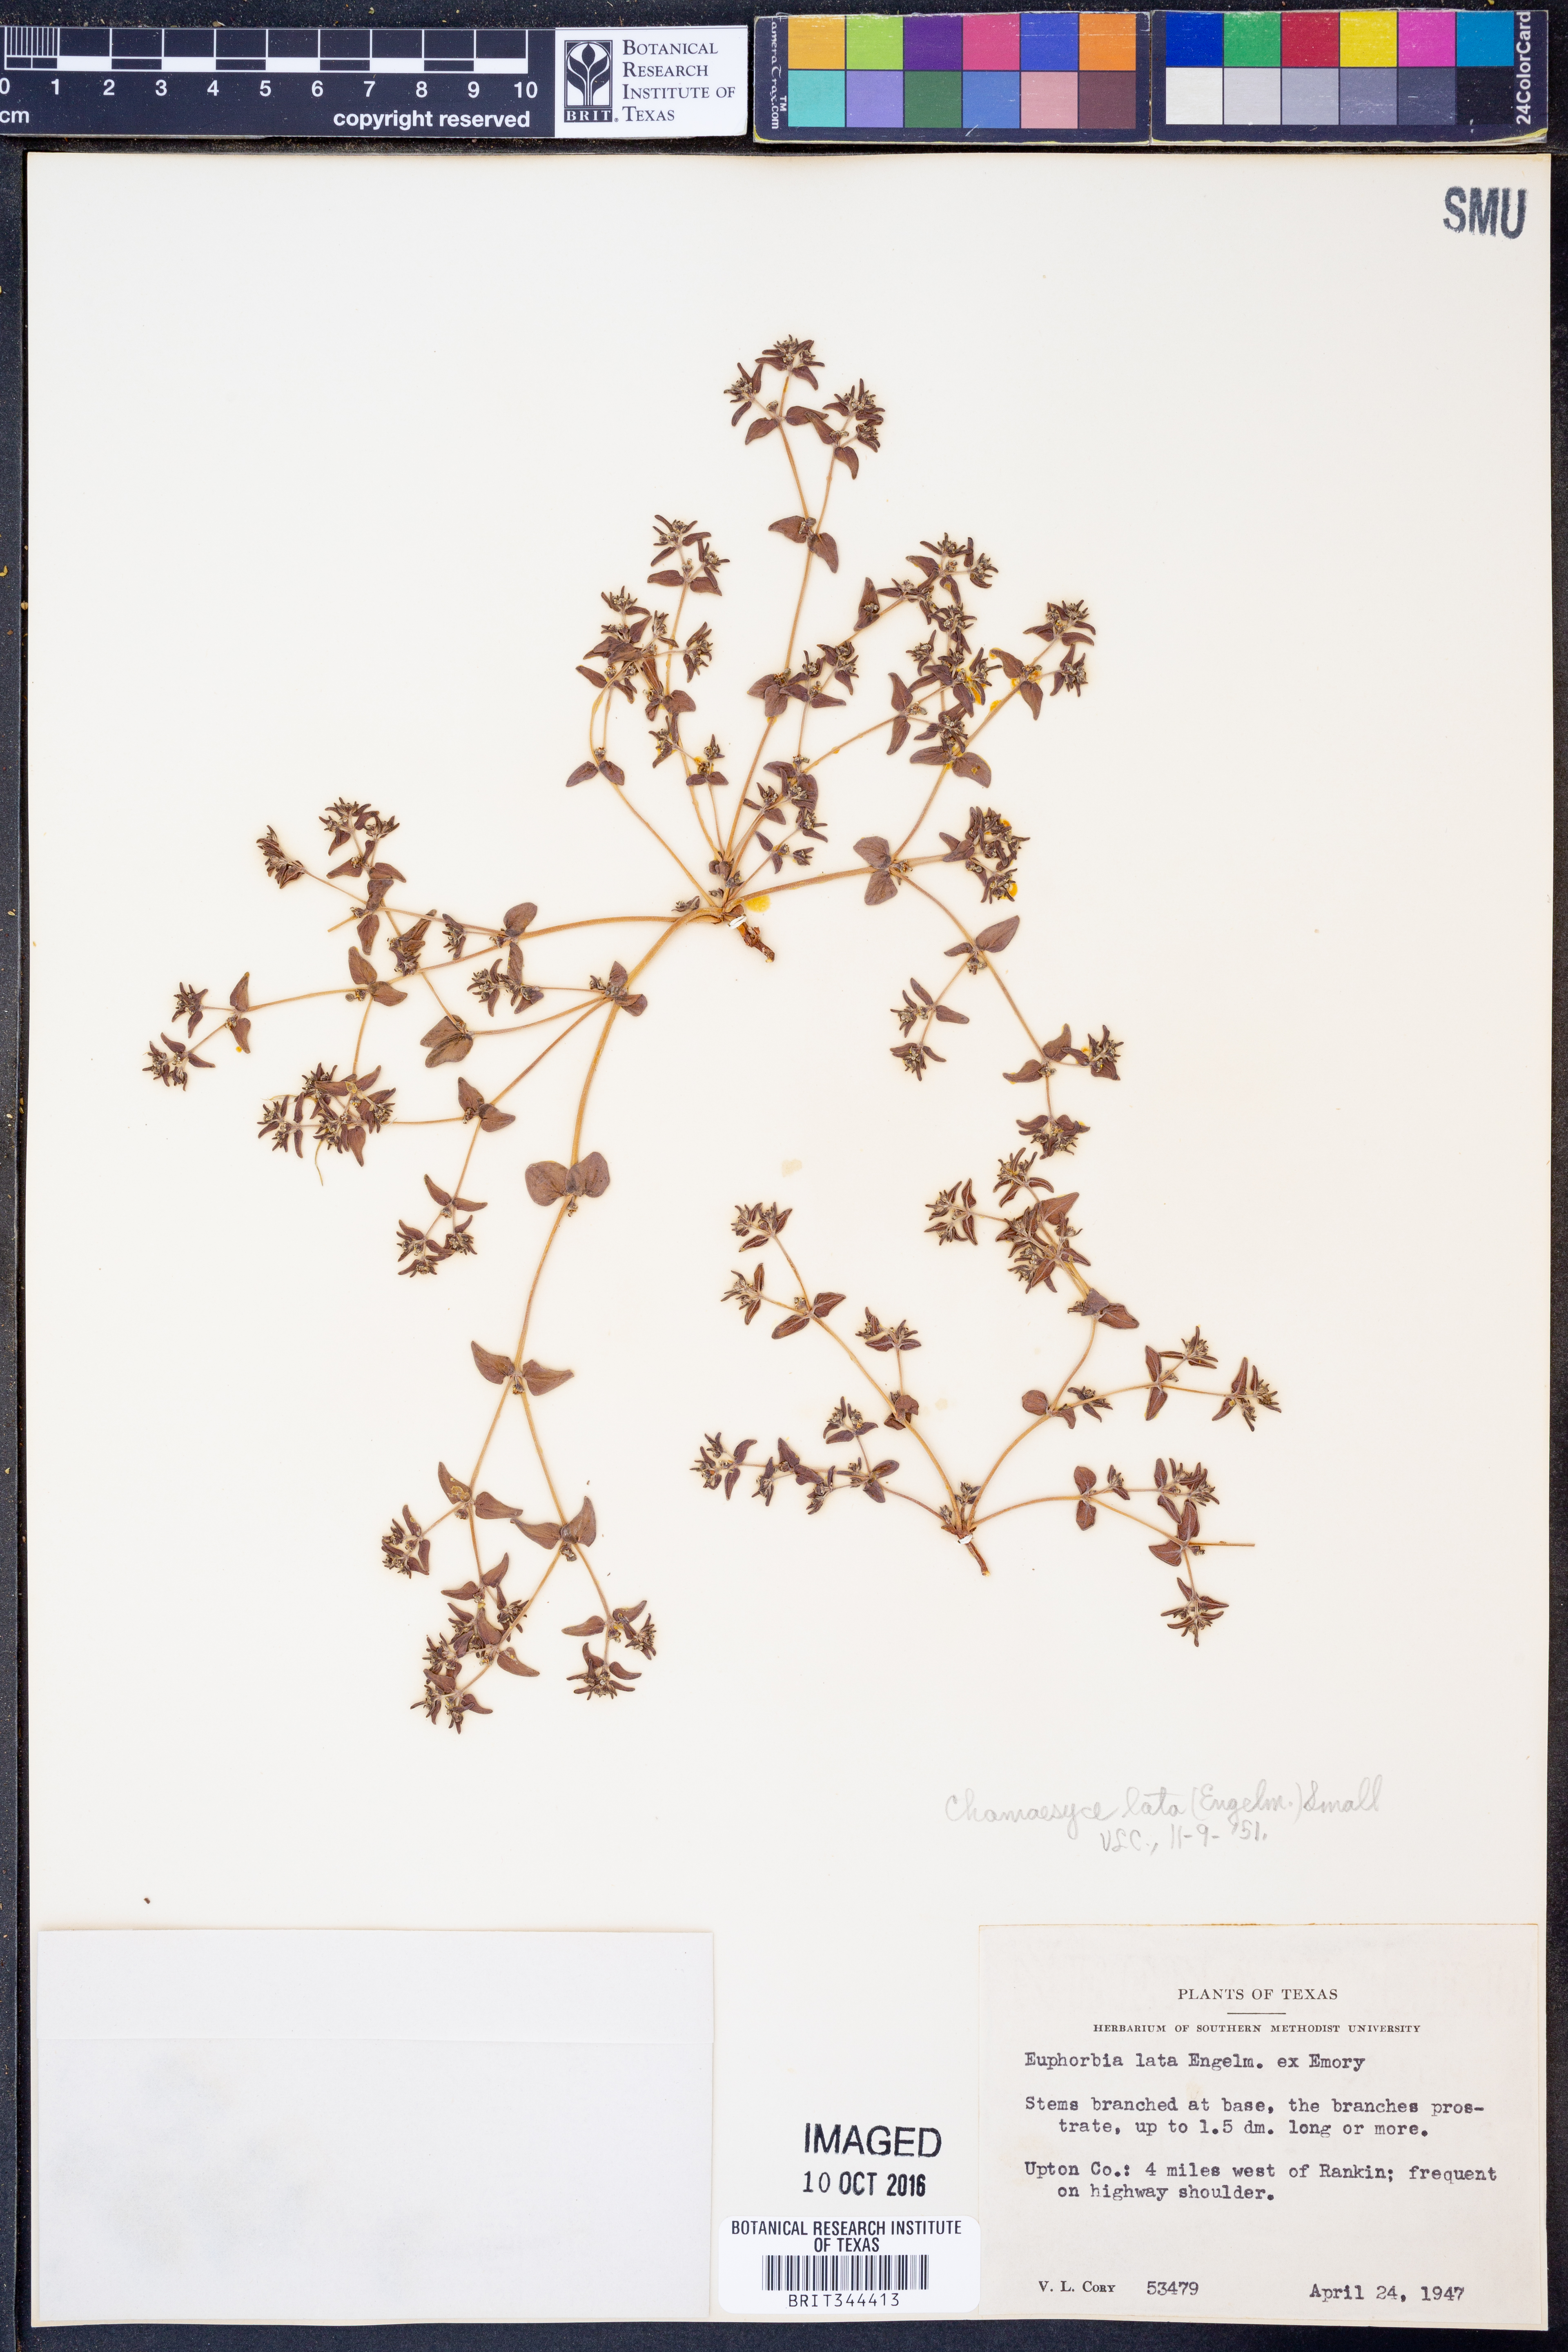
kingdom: Plantae
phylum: Tracheophyta
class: Magnoliopsida
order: Malpighiales
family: Euphorbiaceae
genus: Euphorbia
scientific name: Euphorbia lata
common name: Hoary euphorbia
